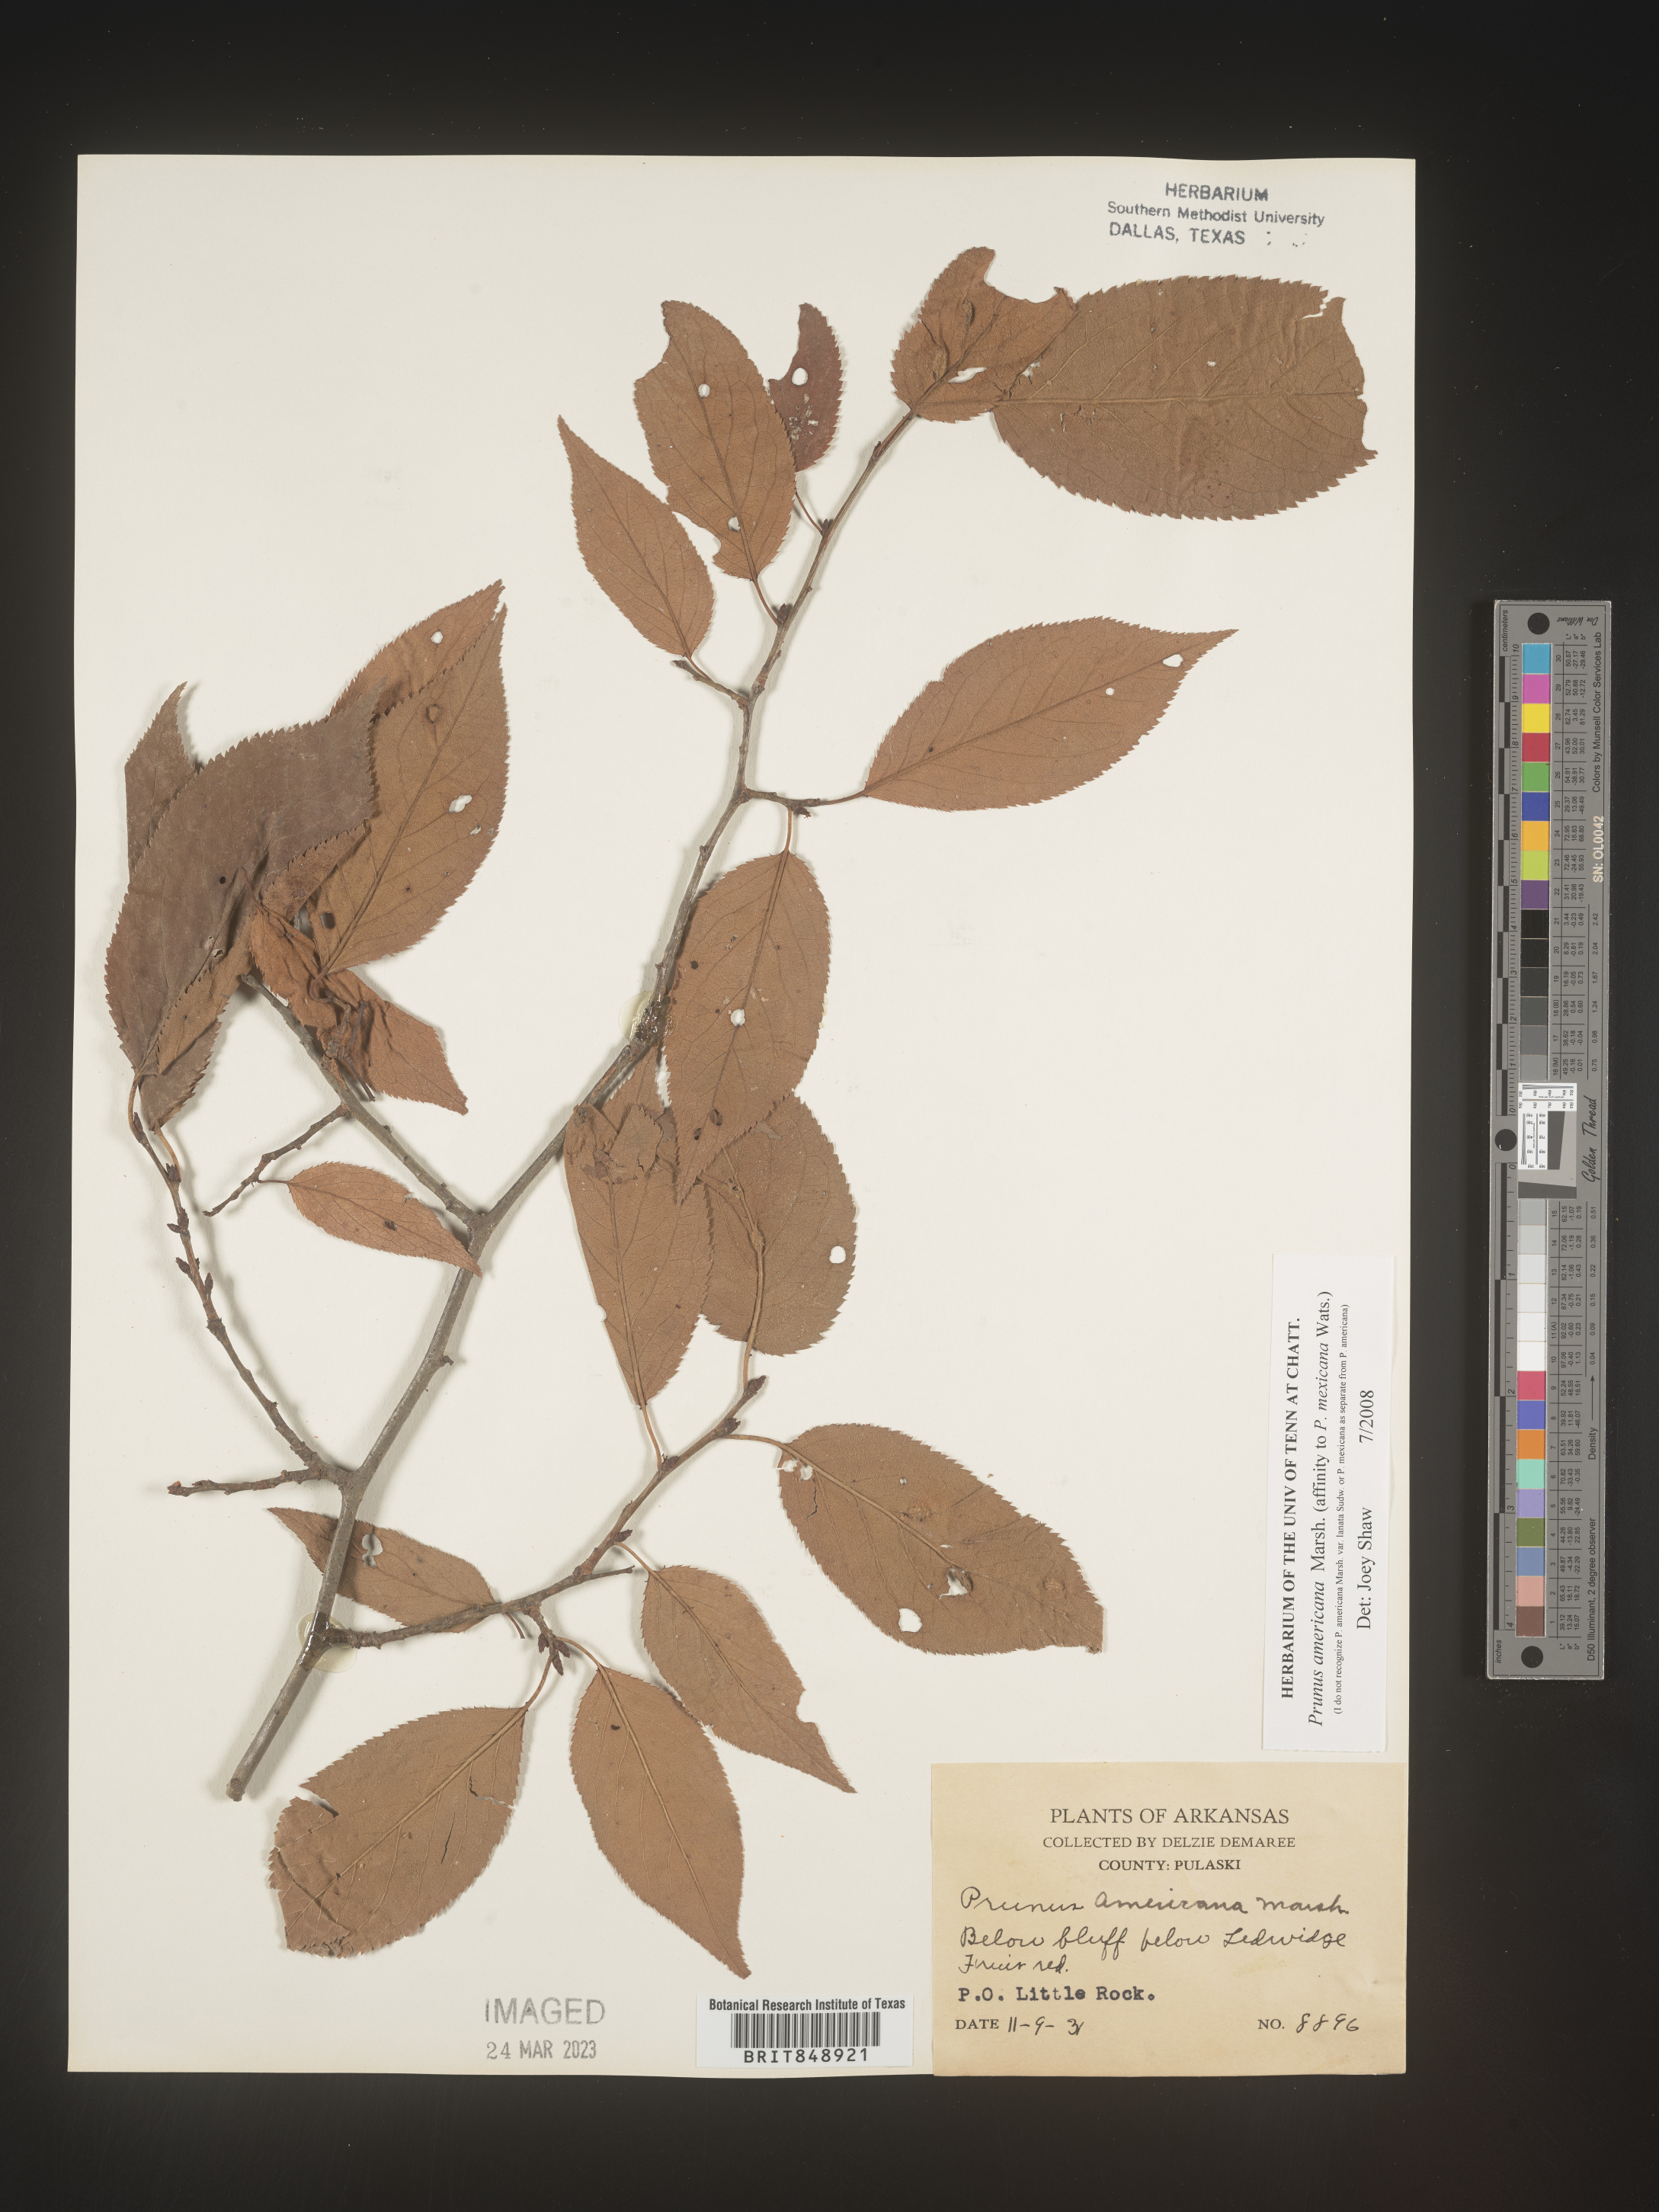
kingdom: Plantae
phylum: Tracheophyta
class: Magnoliopsida
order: Rosales
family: Rosaceae
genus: Prunus
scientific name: Prunus americana
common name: American plum
